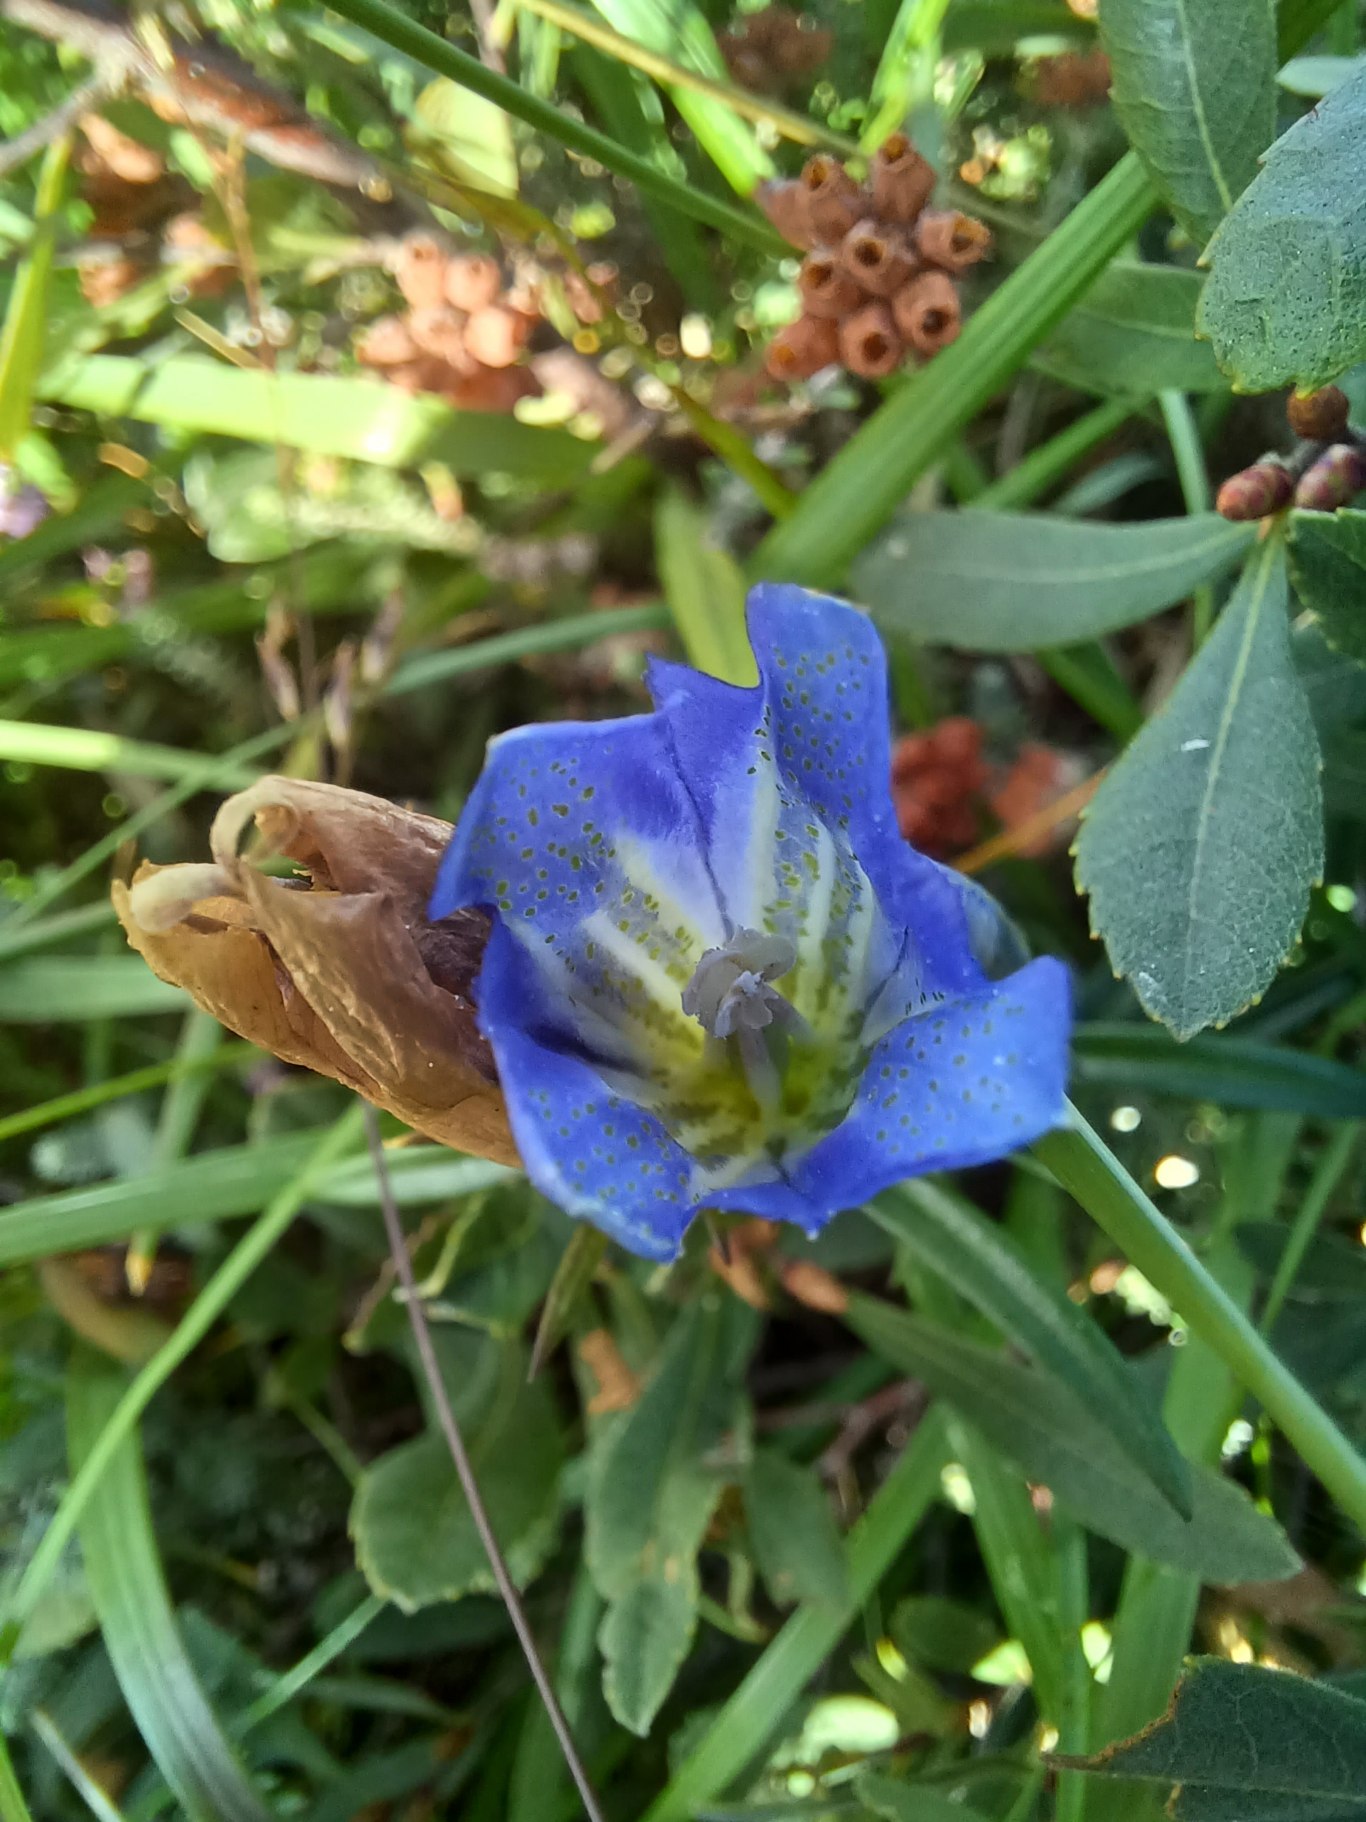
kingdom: Plantae
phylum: Tracheophyta
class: Magnoliopsida
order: Gentianales
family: Gentianaceae
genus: Gentiana
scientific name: Gentiana pneumonanthe
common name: Klokke-ensian
